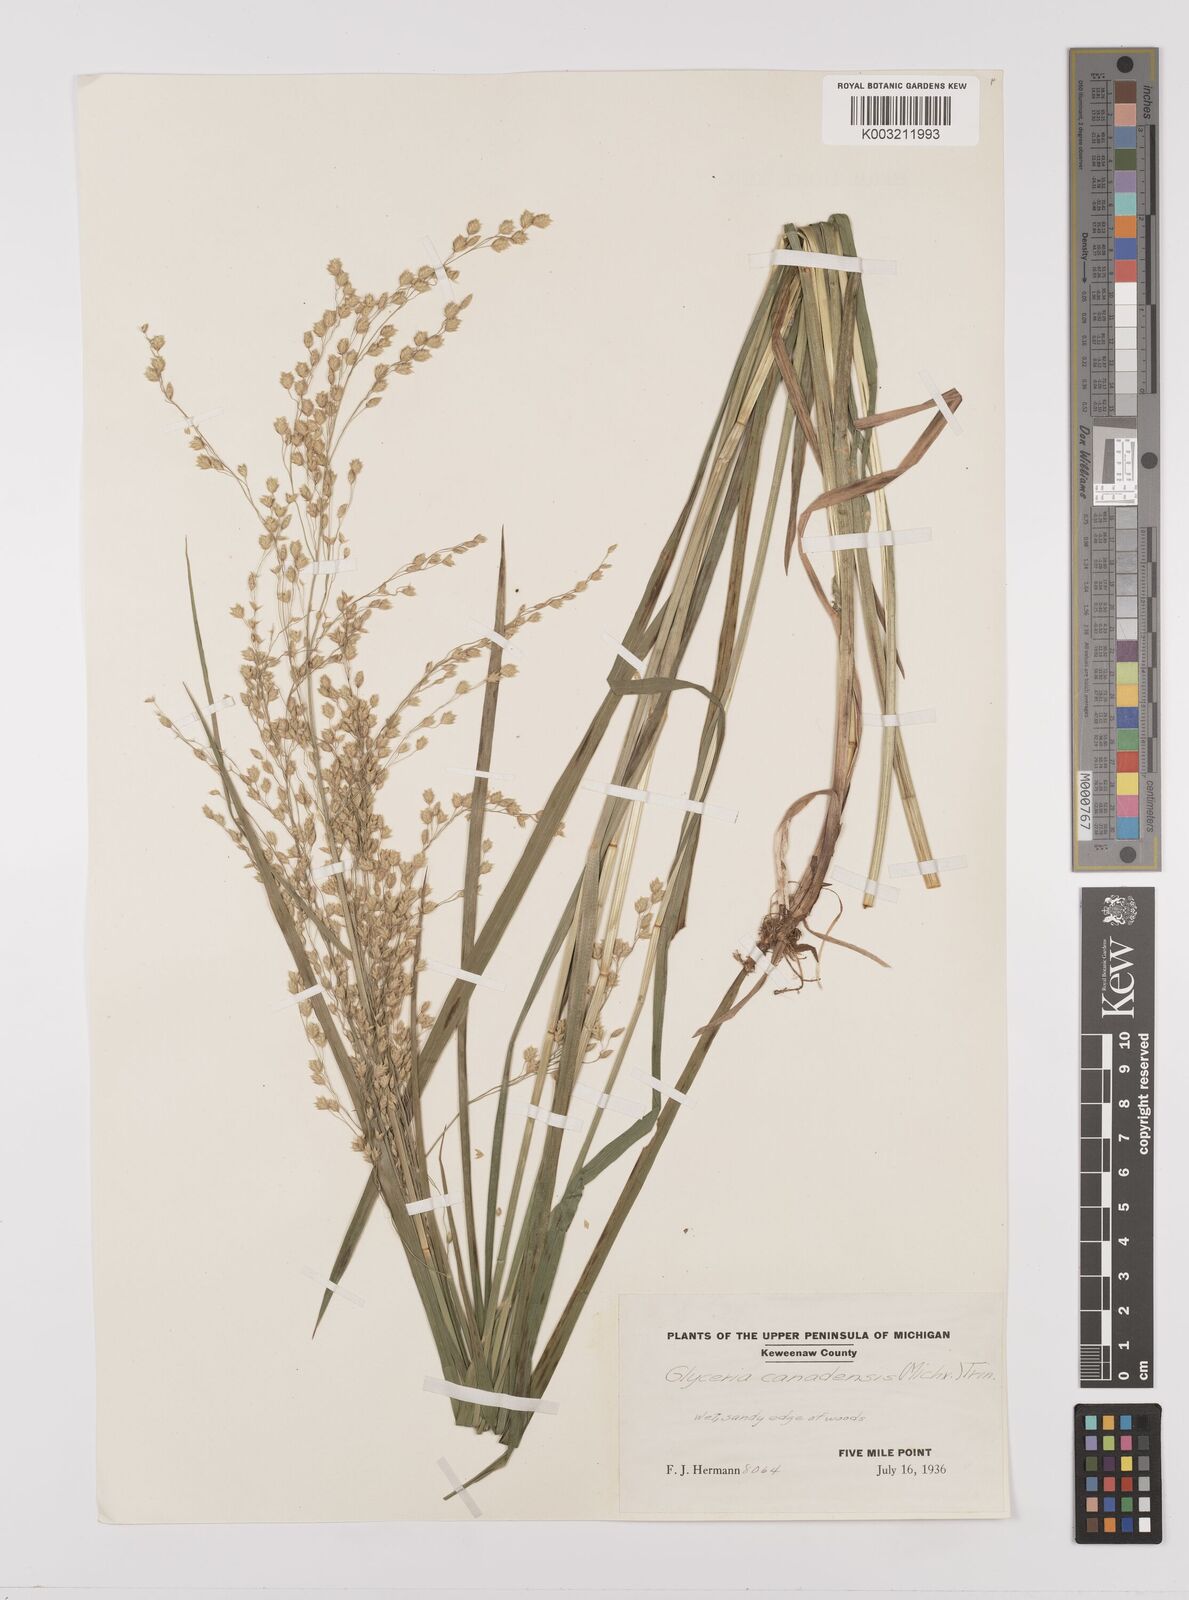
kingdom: Plantae
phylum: Tracheophyta
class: Liliopsida
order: Poales
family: Poaceae
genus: Glyceria
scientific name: Glyceria canadensis
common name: Canada mannagrass
